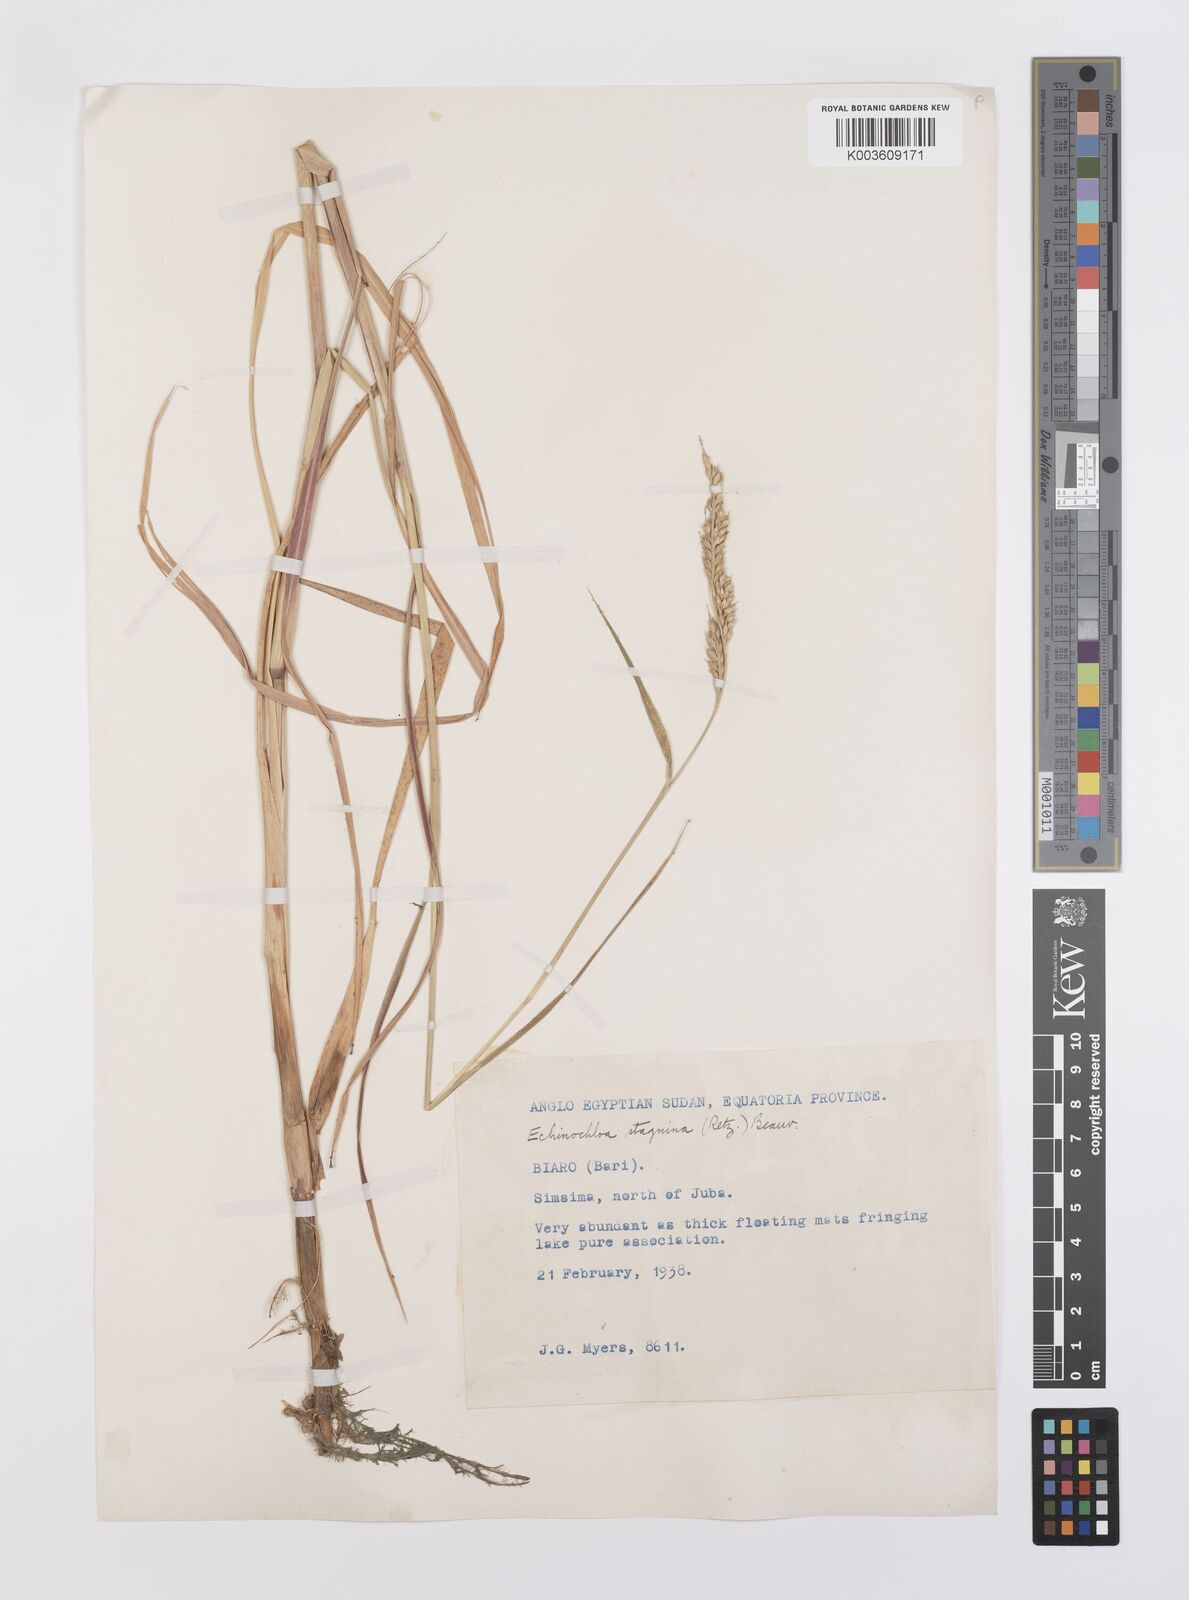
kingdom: Plantae
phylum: Tracheophyta
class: Liliopsida
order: Poales
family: Poaceae
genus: Echinochloa
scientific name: Echinochloa stagnina
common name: Burgu grass
